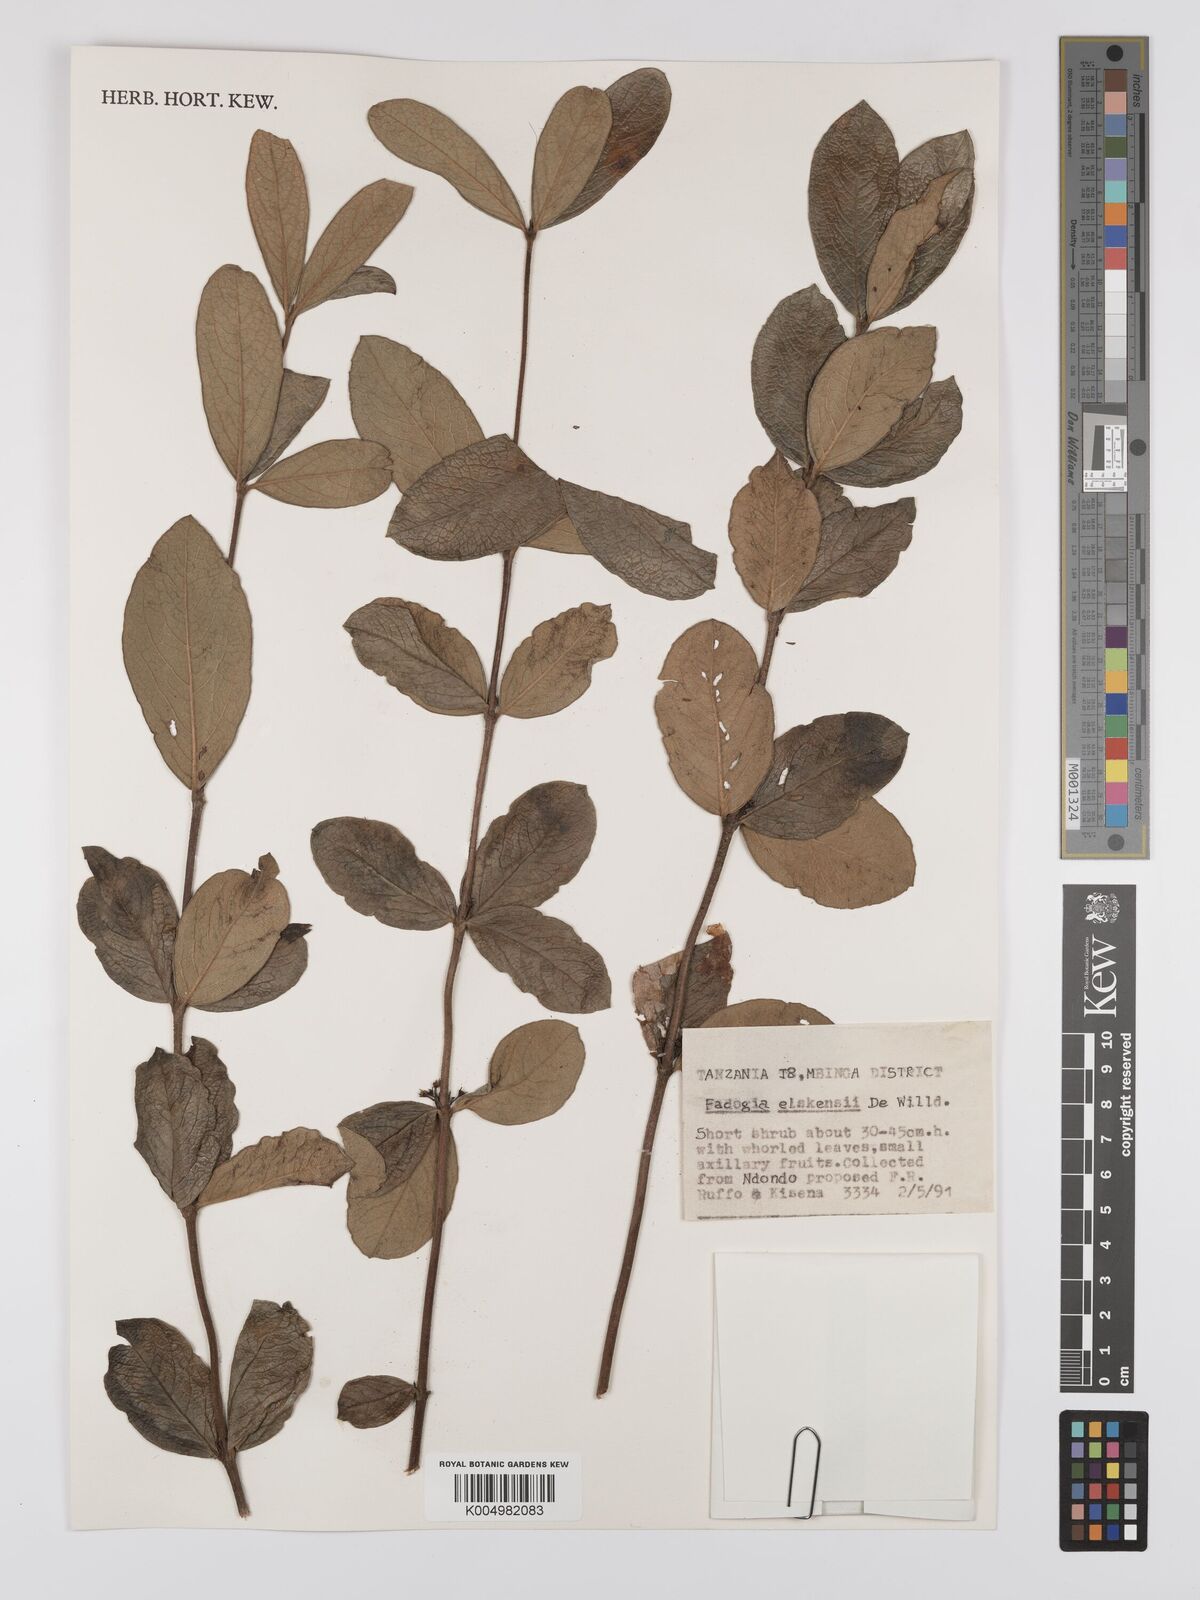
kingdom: Plantae
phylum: Tracheophyta
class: Magnoliopsida
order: Gentianales
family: Rubiaceae
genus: Fadogia
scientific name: Fadogia elskensii
